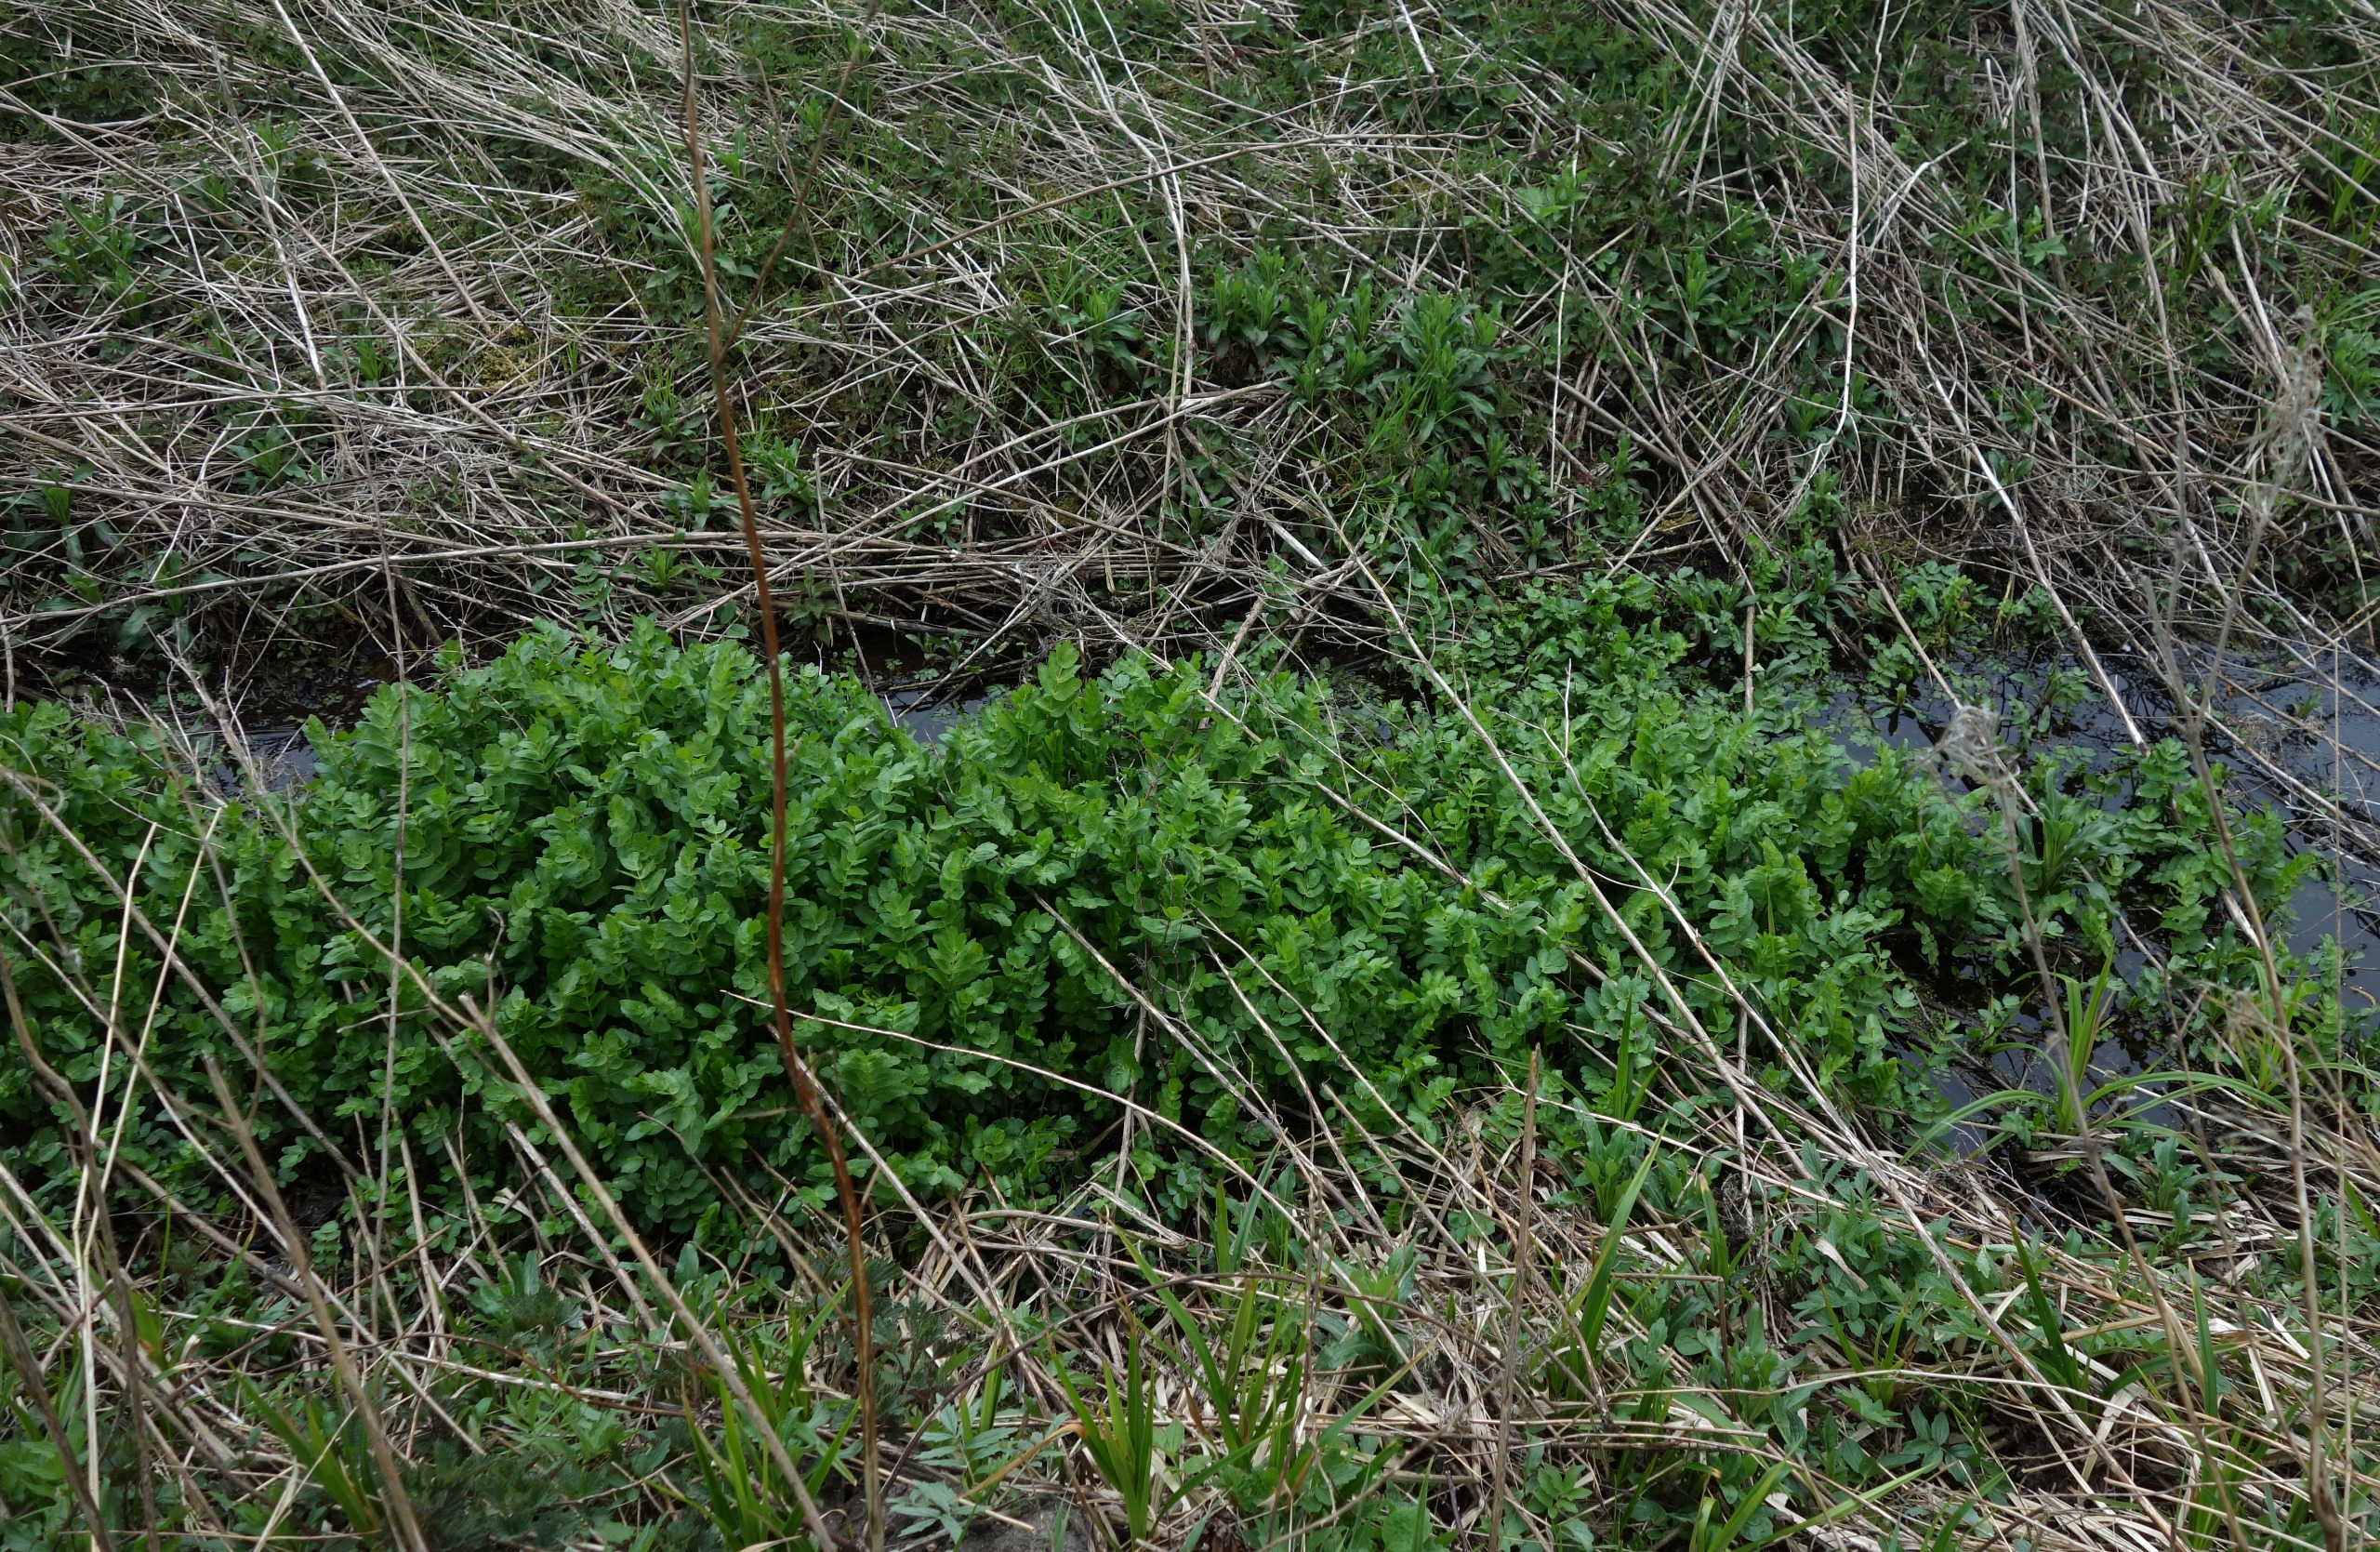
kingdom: Plantae
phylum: Tracheophyta
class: Magnoliopsida
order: Apiales
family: Apiaceae
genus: Berula
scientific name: Berula erecta
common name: Sideskærm
